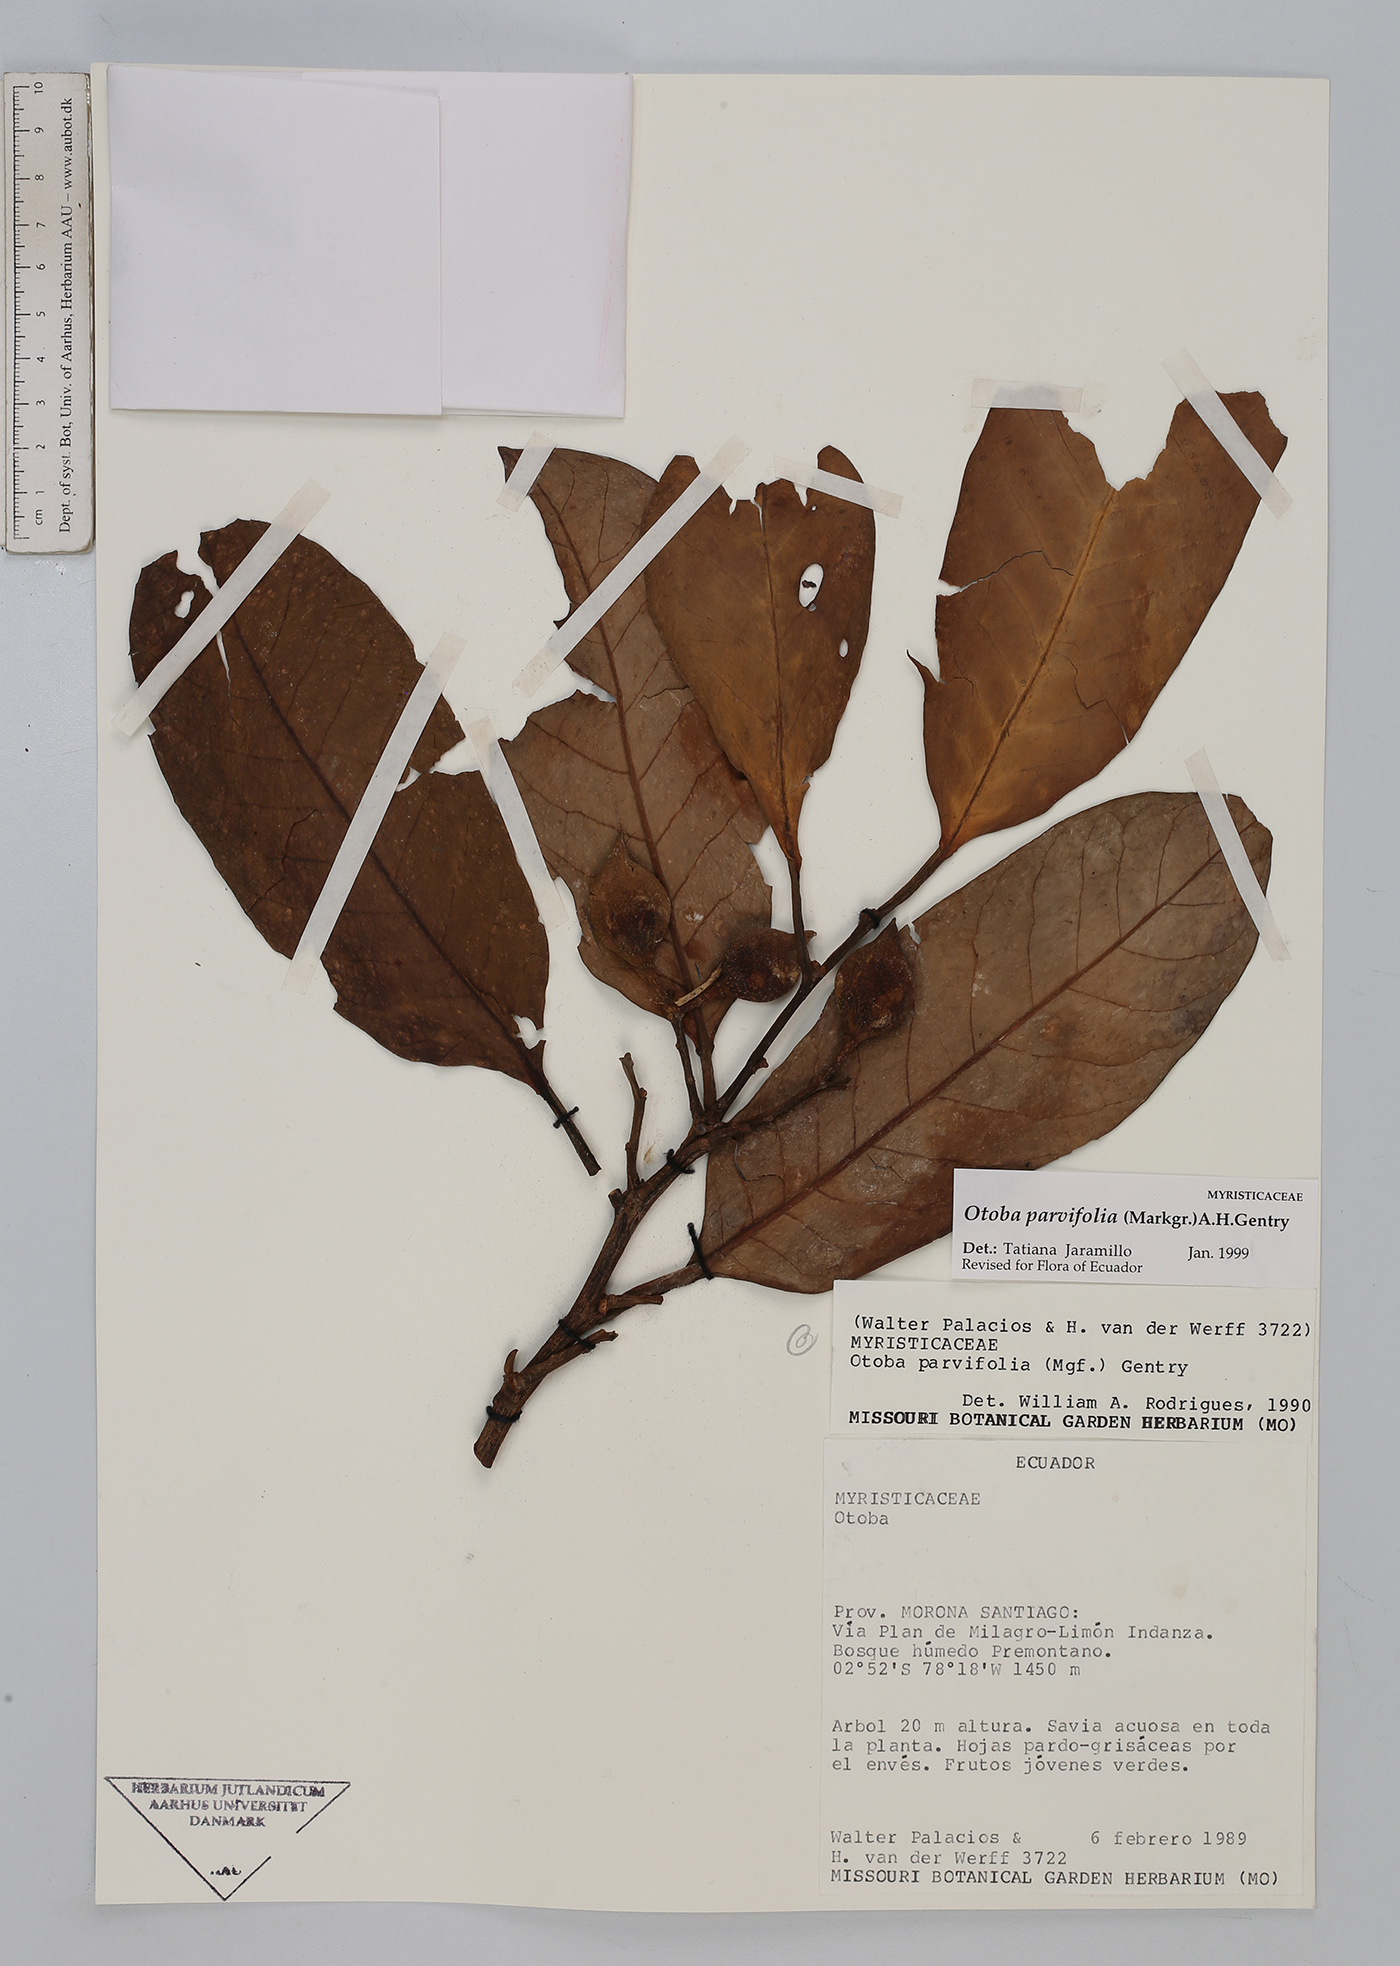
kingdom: Plantae
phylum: Tracheophyta
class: Magnoliopsida
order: Magnoliales
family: Myristicaceae
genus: Otoba
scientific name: Otoba parvifolia
